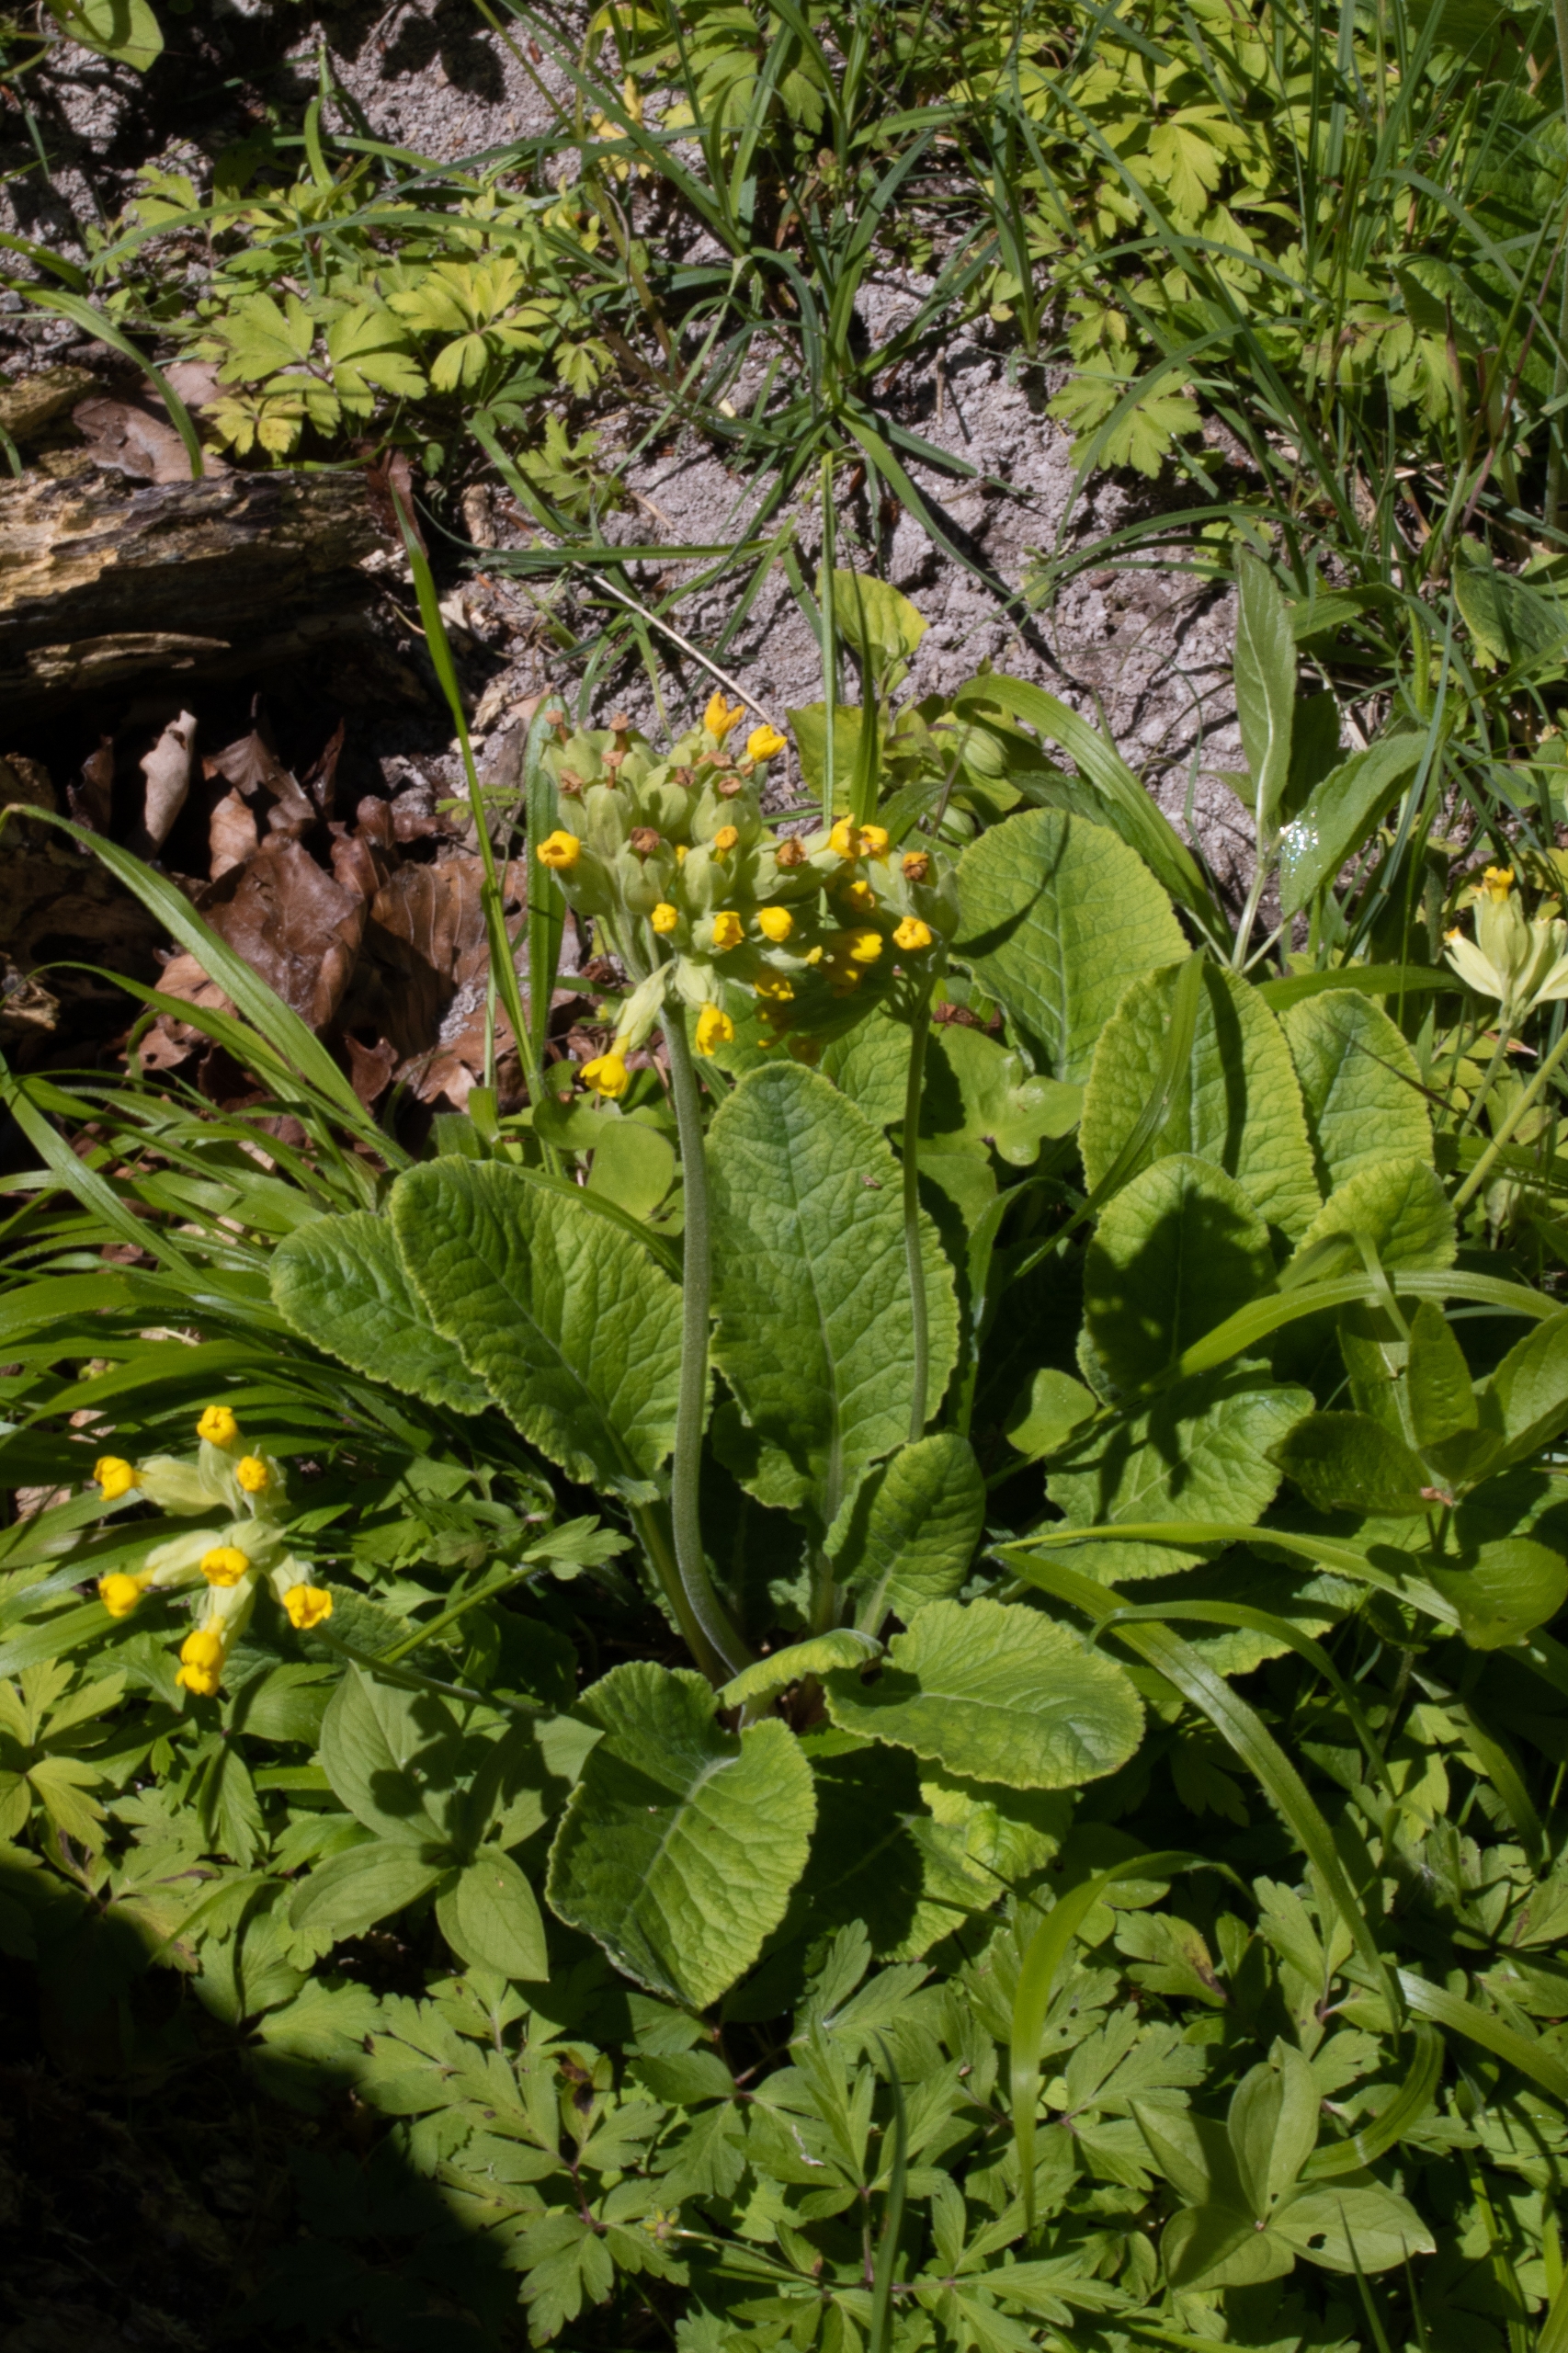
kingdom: Plantae
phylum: Tracheophyta
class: Magnoliopsida
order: Ericales
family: Primulaceae
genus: Primula
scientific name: Primula veris
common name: Hulkravet kodriver
